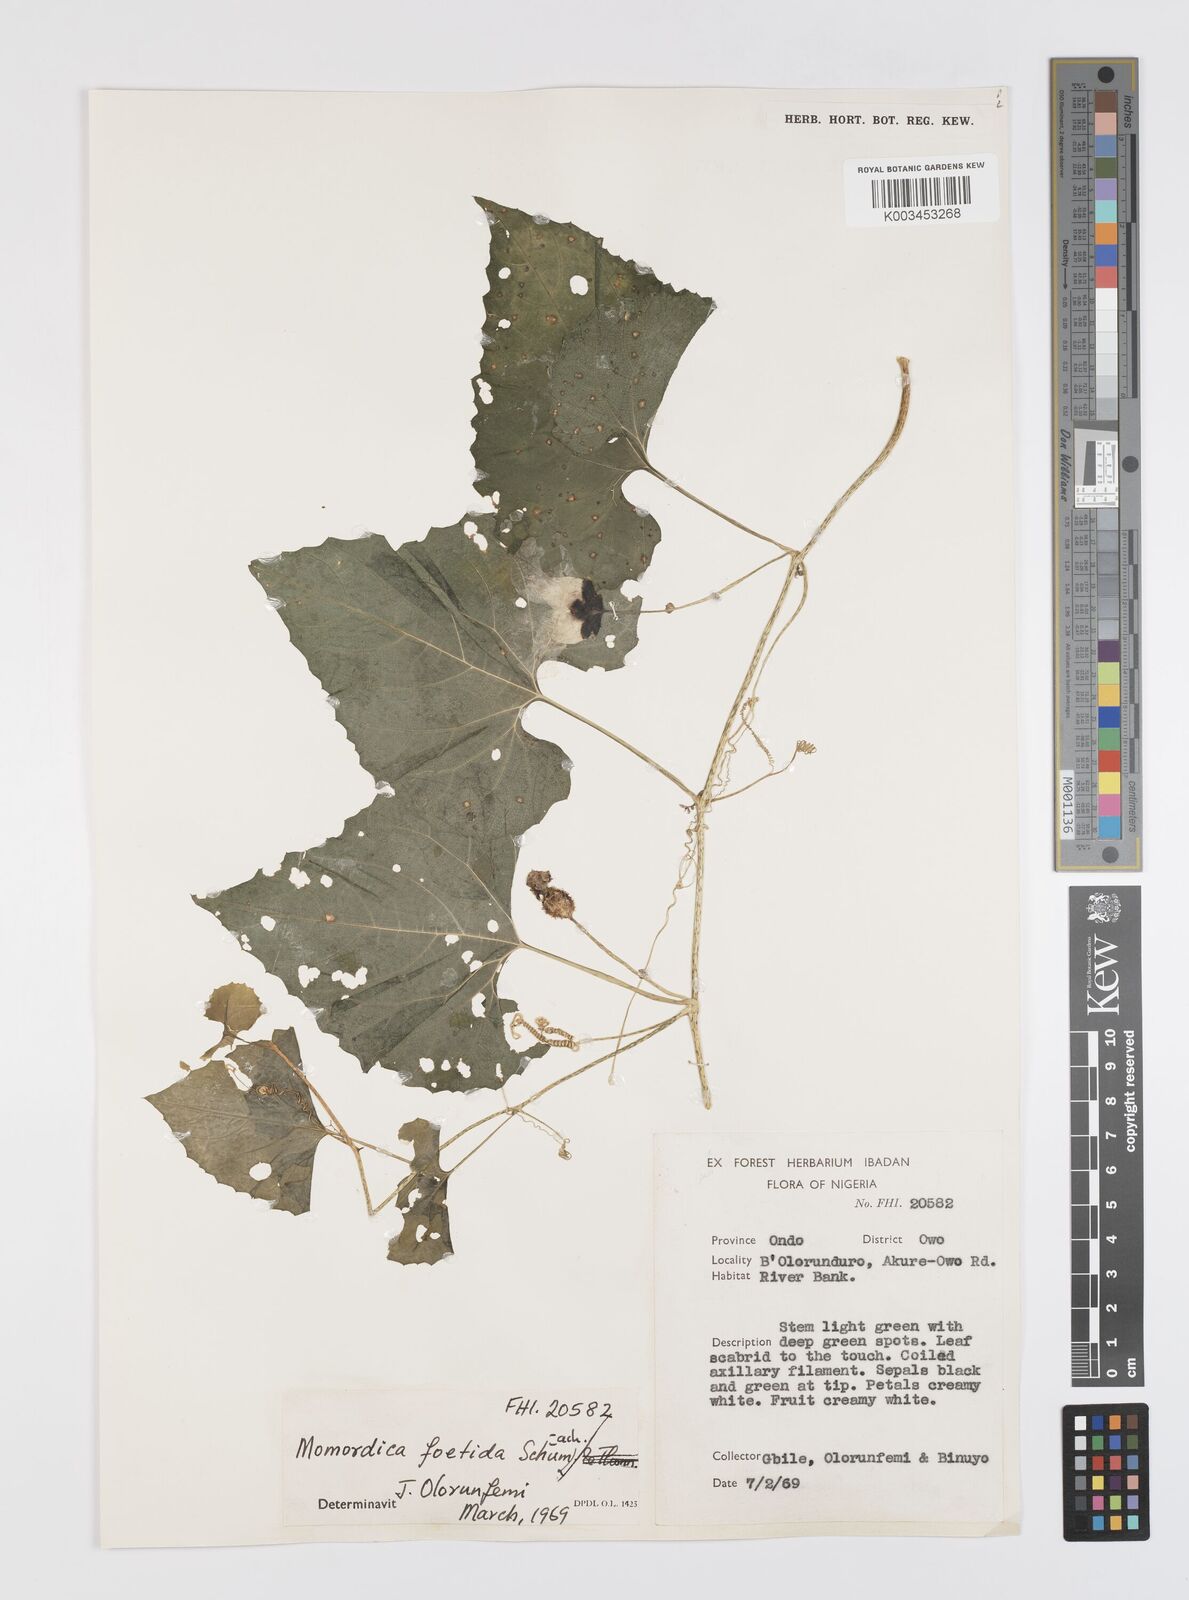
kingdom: Plantae
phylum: Tracheophyta
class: Magnoliopsida
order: Cucurbitales
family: Cucurbitaceae
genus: Momordica
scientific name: Momordica foetida
